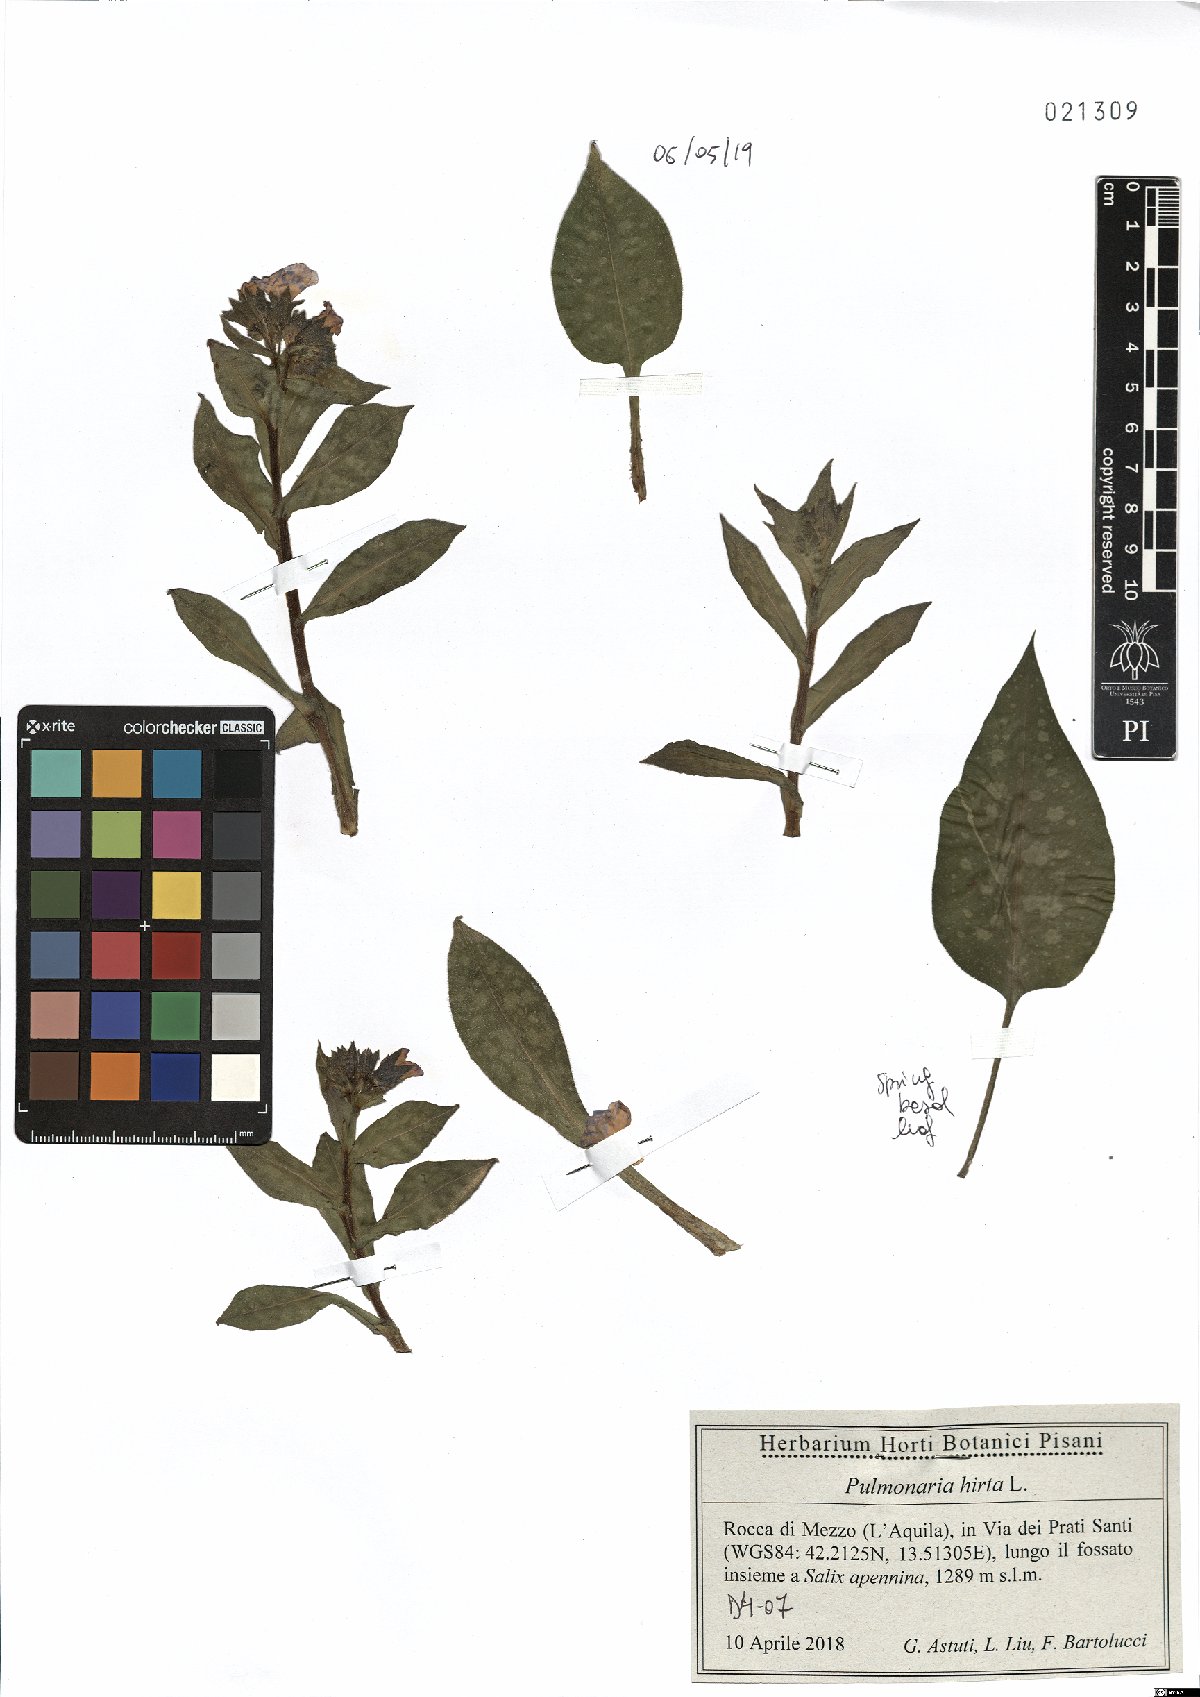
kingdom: Plantae
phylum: Tracheophyta
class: Magnoliopsida
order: Boraginales
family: Boraginaceae
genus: Pulmonaria
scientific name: Pulmonaria hirta
